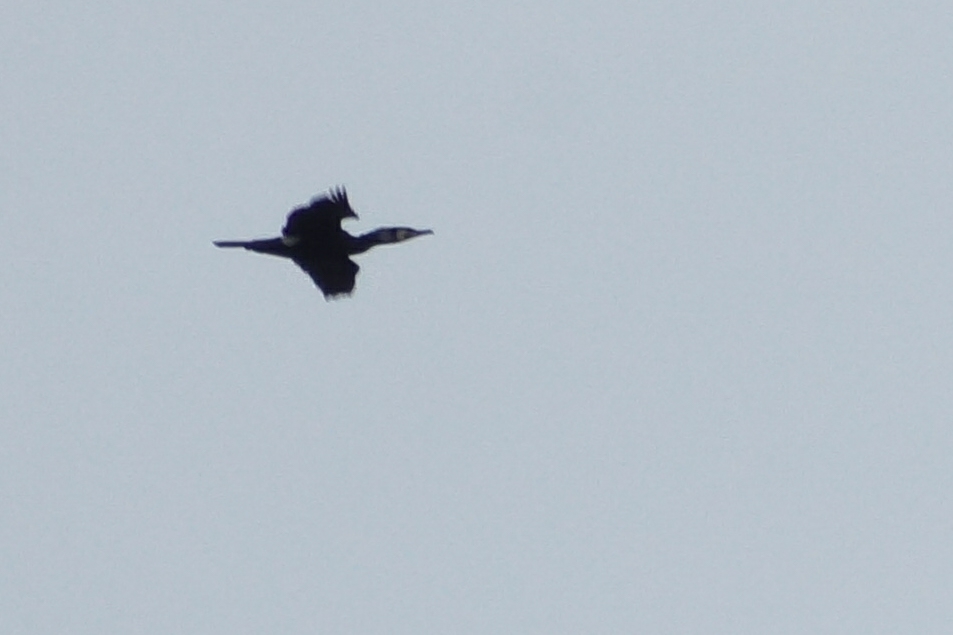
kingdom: Animalia
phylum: Chordata
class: Aves
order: Suliformes
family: Phalacrocoracidae
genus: Phalacrocorax
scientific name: Phalacrocorax carbo
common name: Skarv
